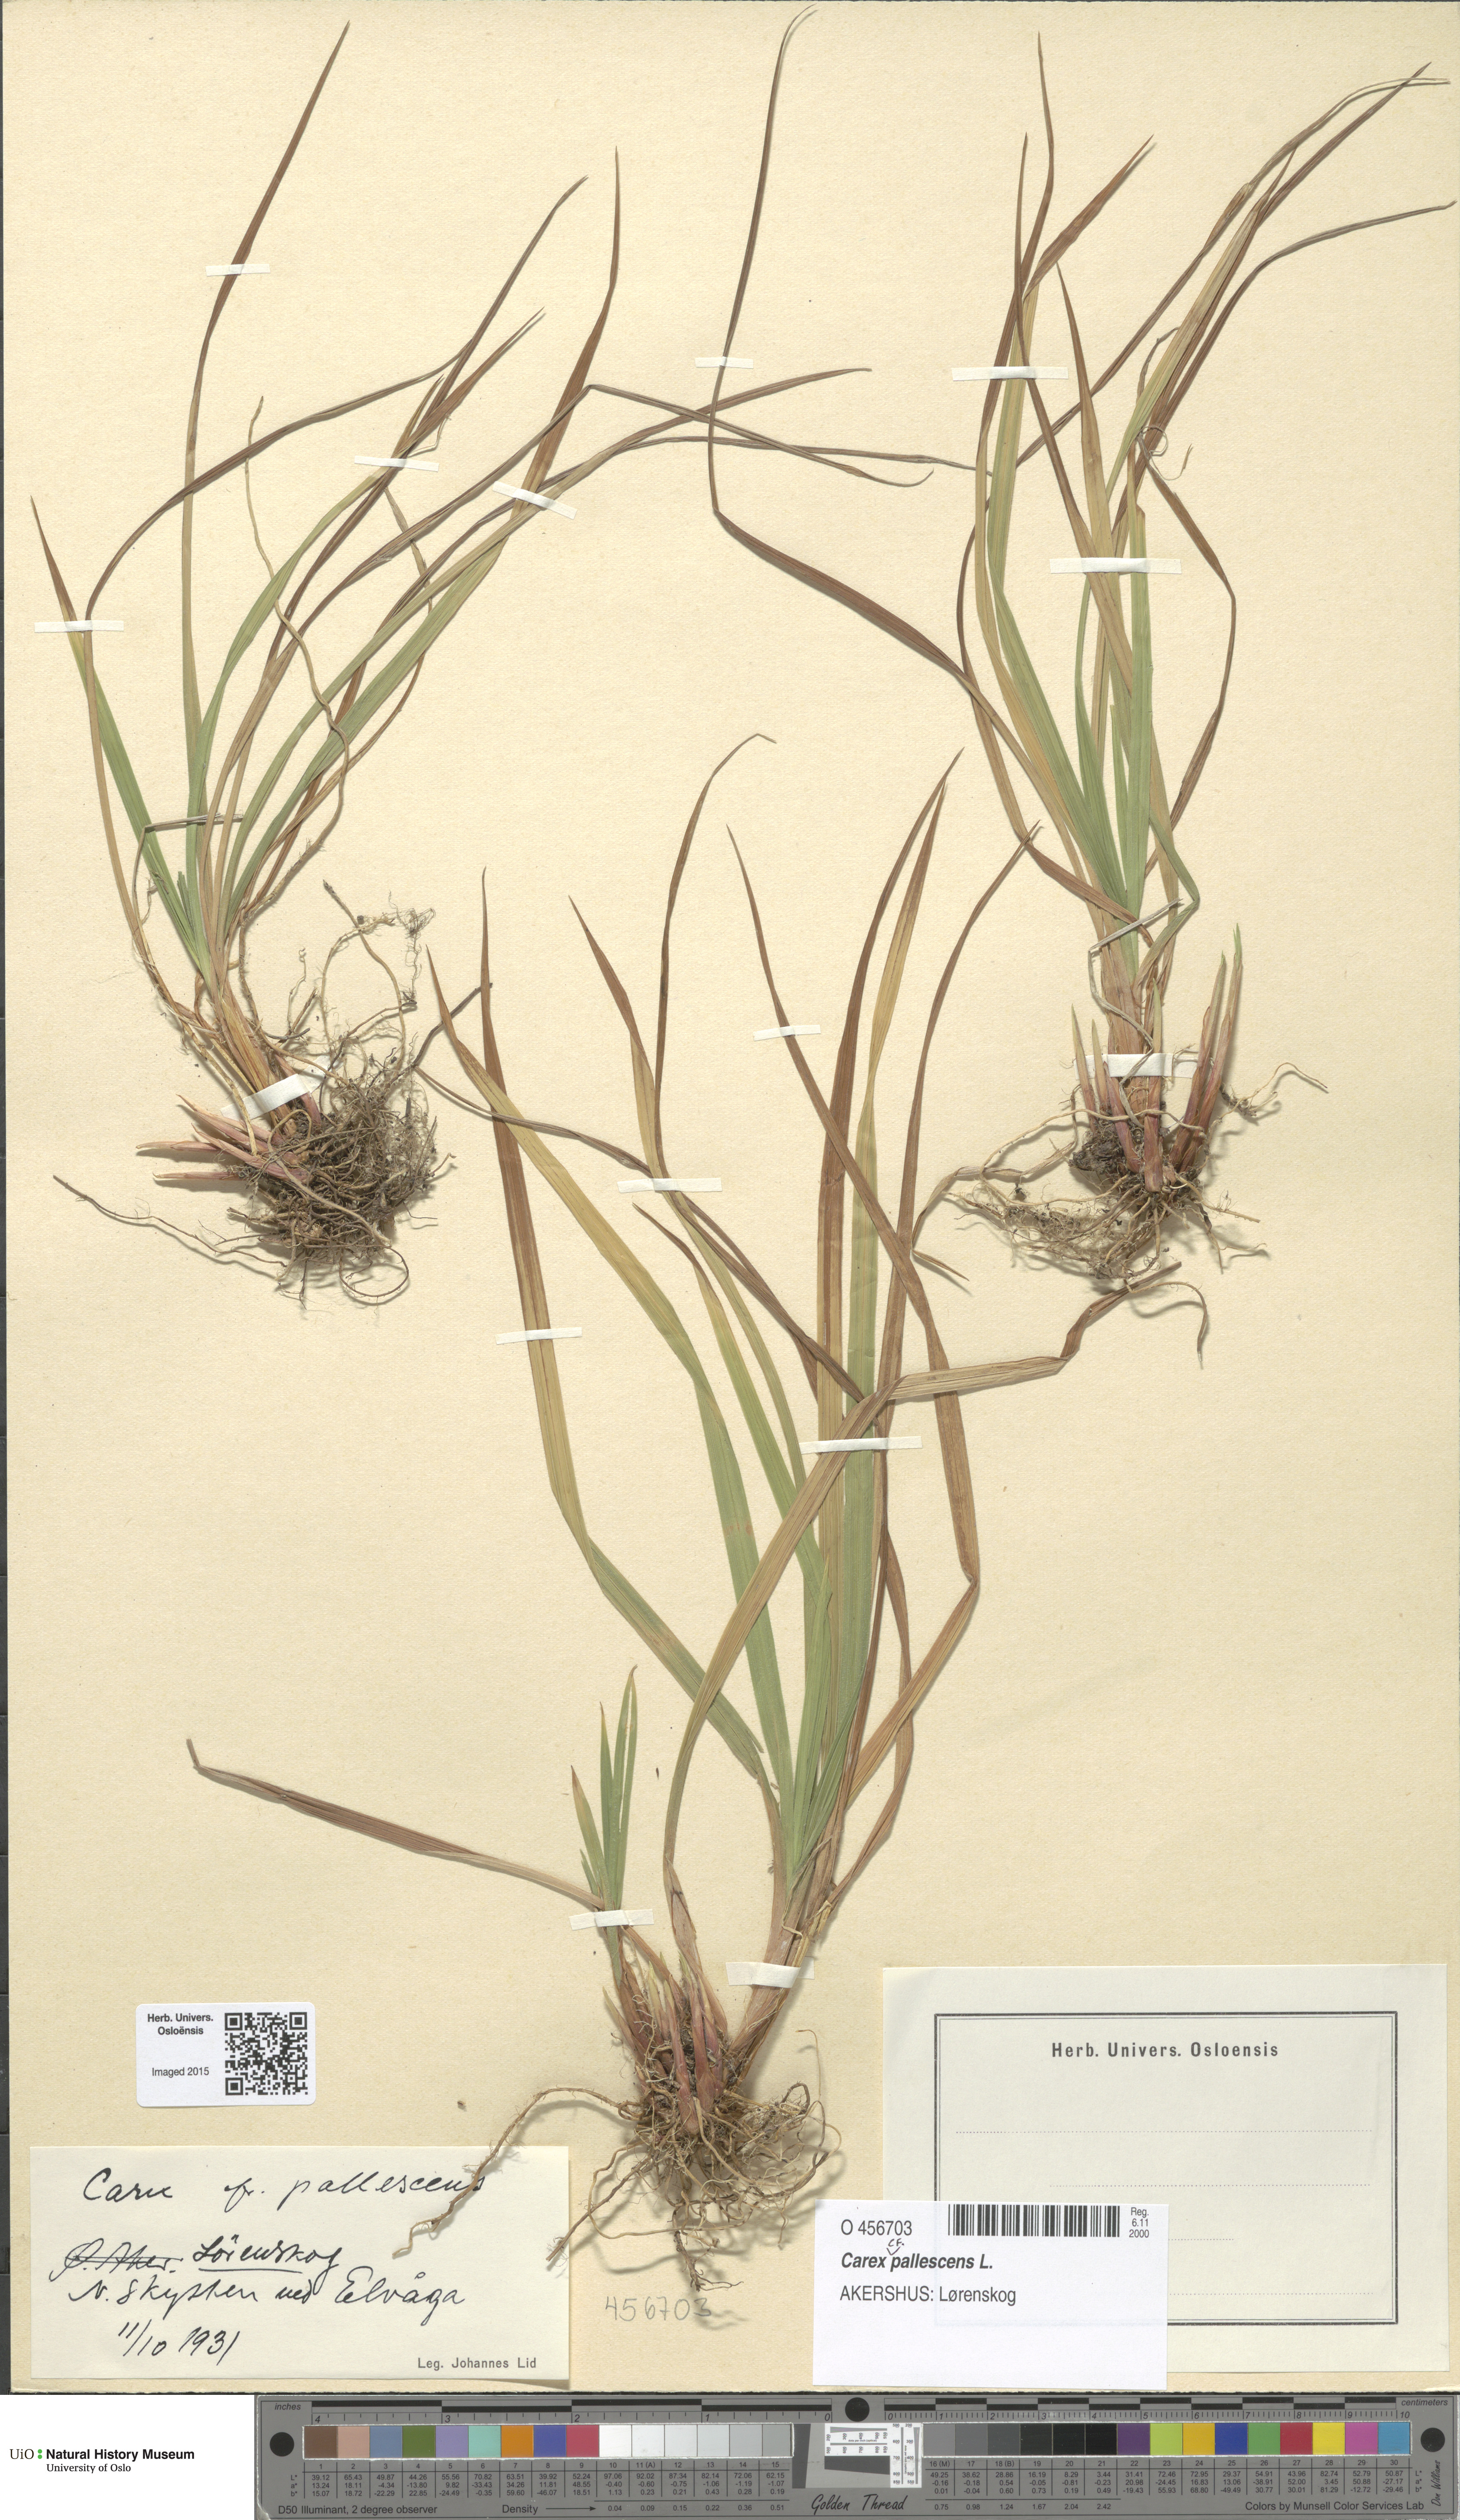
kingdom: Plantae
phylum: Tracheophyta
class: Liliopsida
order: Poales
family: Cyperaceae
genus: Carex
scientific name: Carex pallescens
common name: Pale sedge
